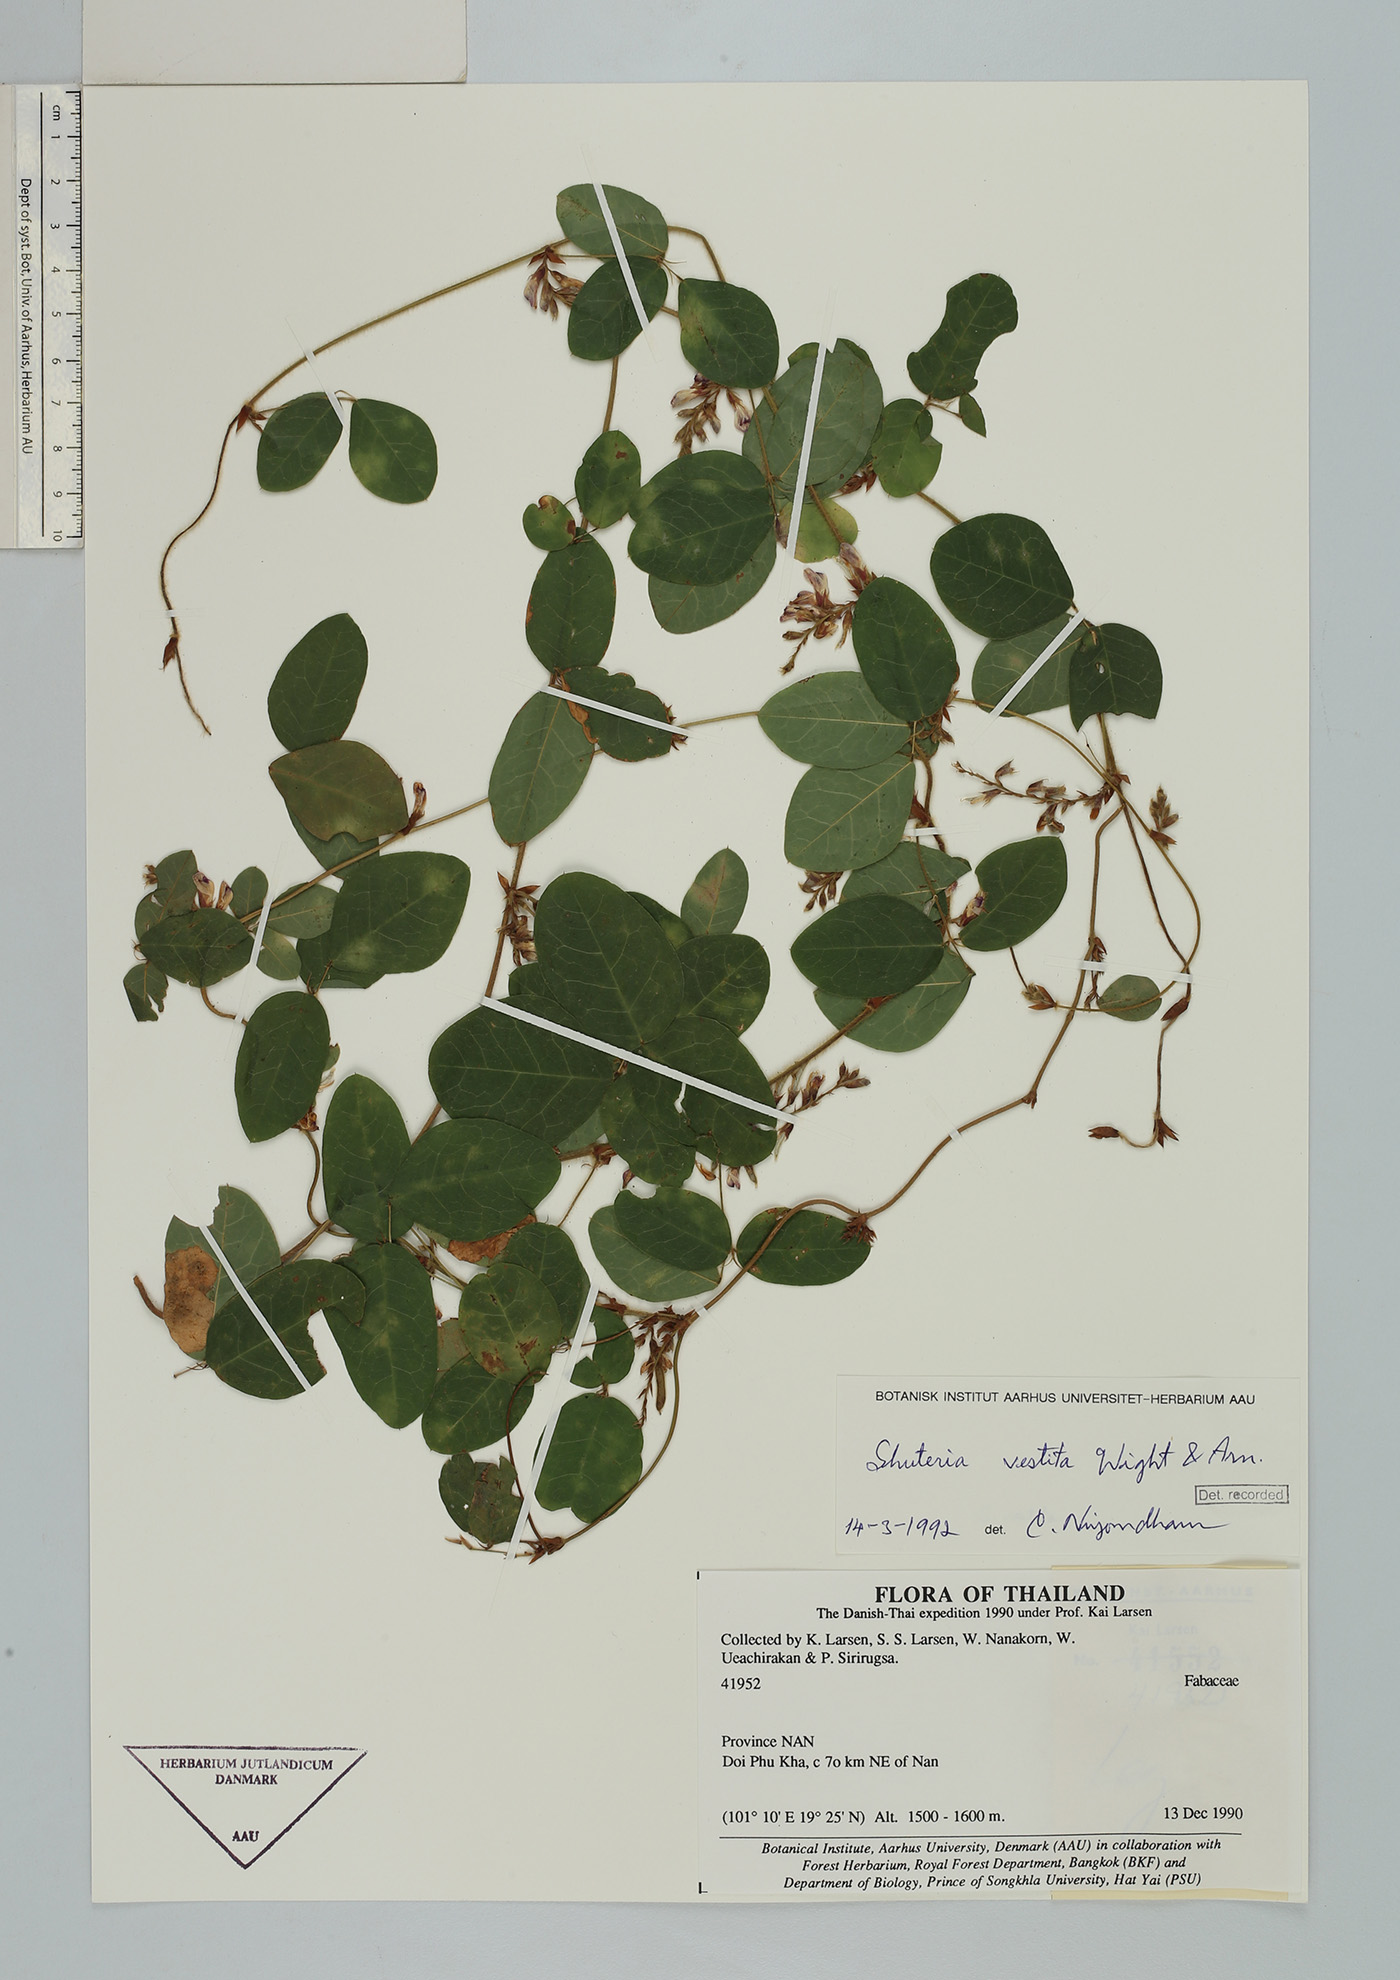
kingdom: Plantae
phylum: Tracheophyta
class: Magnoliopsida
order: Fabales
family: Fabaceae
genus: Shuteria
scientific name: Shuteria vestita
